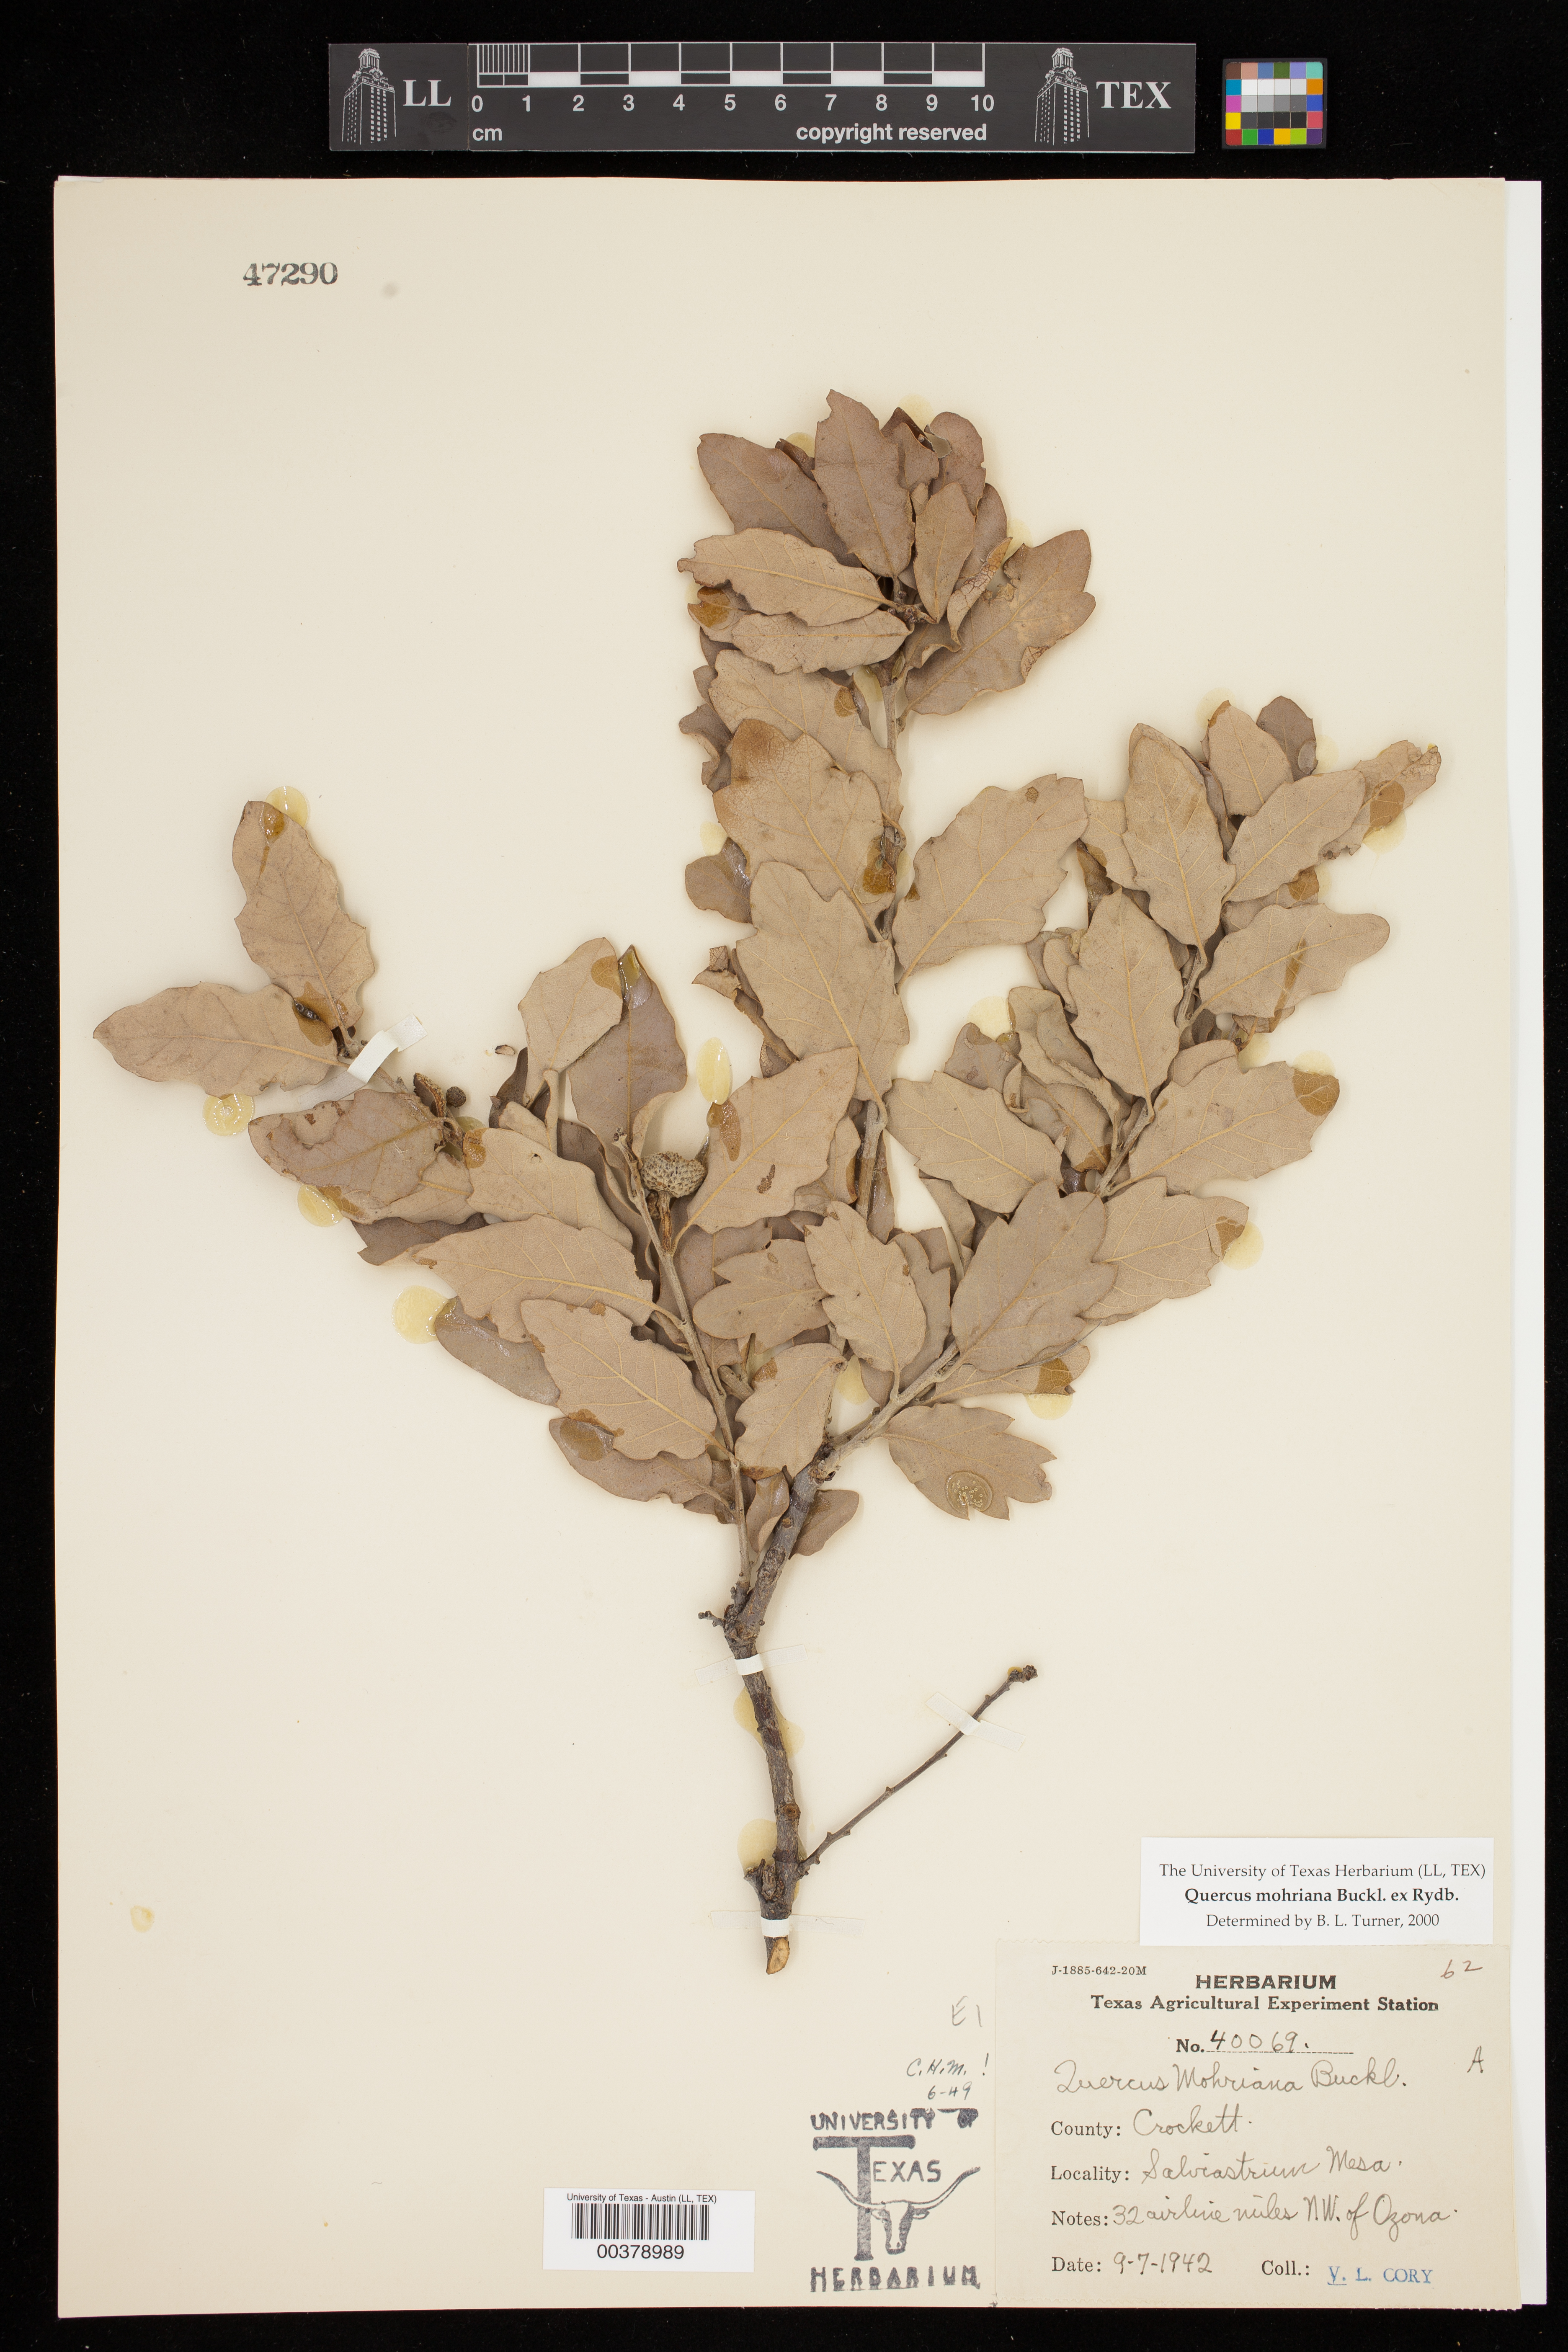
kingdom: Plantae
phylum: Tracheophyta
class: Magnoliopsida
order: Fagales
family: Fagaceae
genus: Quercus
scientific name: Quercus mohriana
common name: Mohr oak
